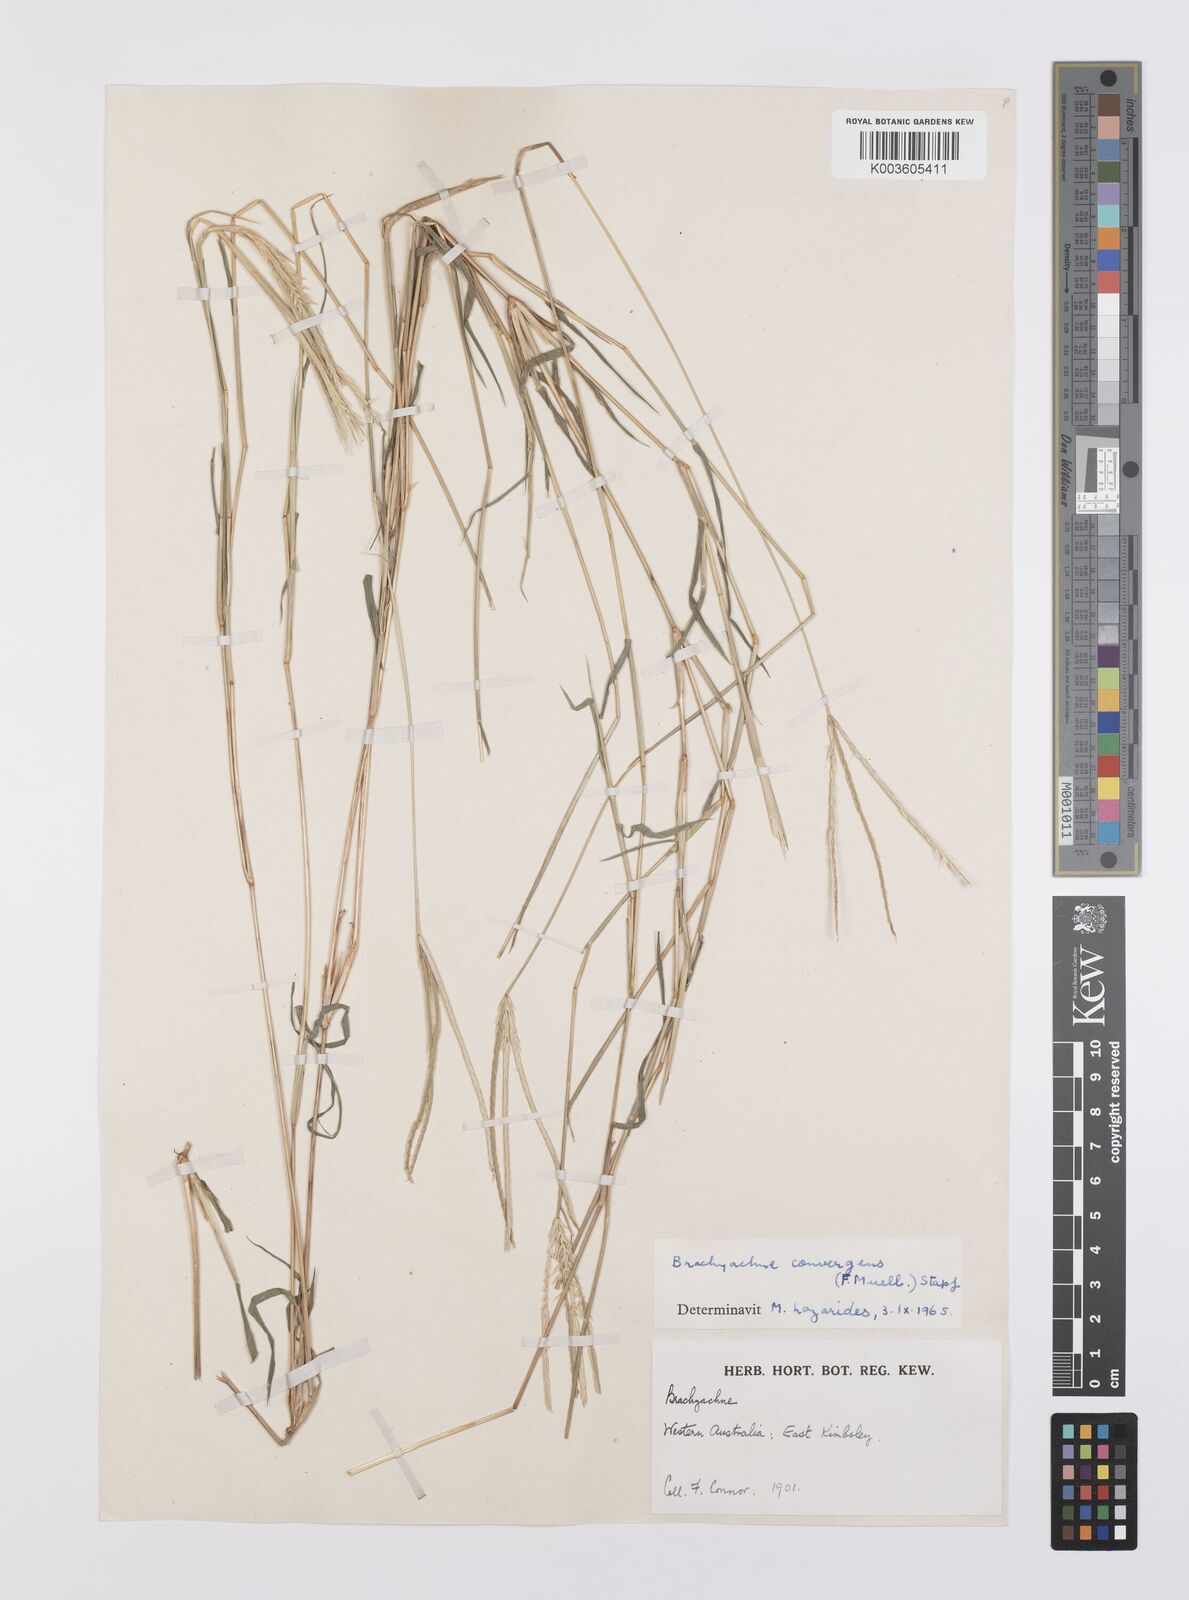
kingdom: Plantae
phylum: Tracheophyta
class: Liliopsida
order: Poales
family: Poaceae
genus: Cynodon
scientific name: Cynodon
